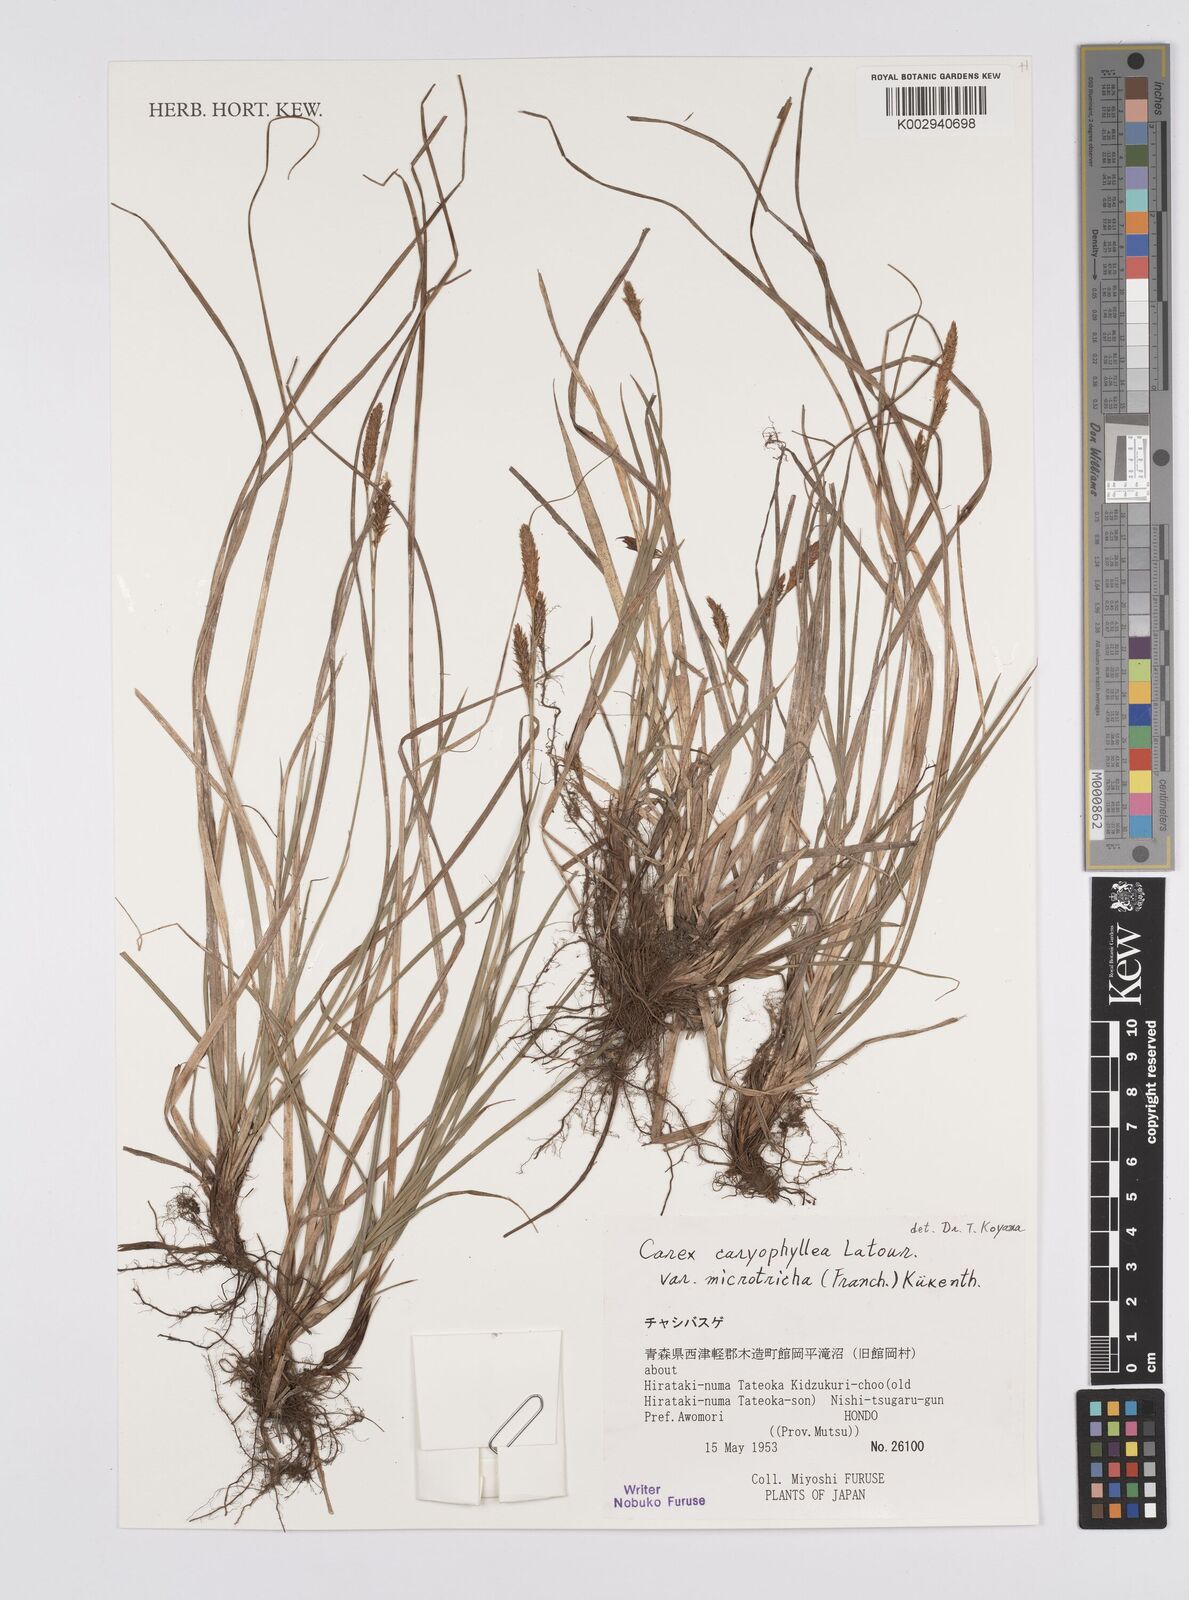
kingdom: Plantae
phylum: Tracheophyta
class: Liliopsida
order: Poales
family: Cyperaceae
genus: Carex
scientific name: Carex caryophyllea
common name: Spring sedge
